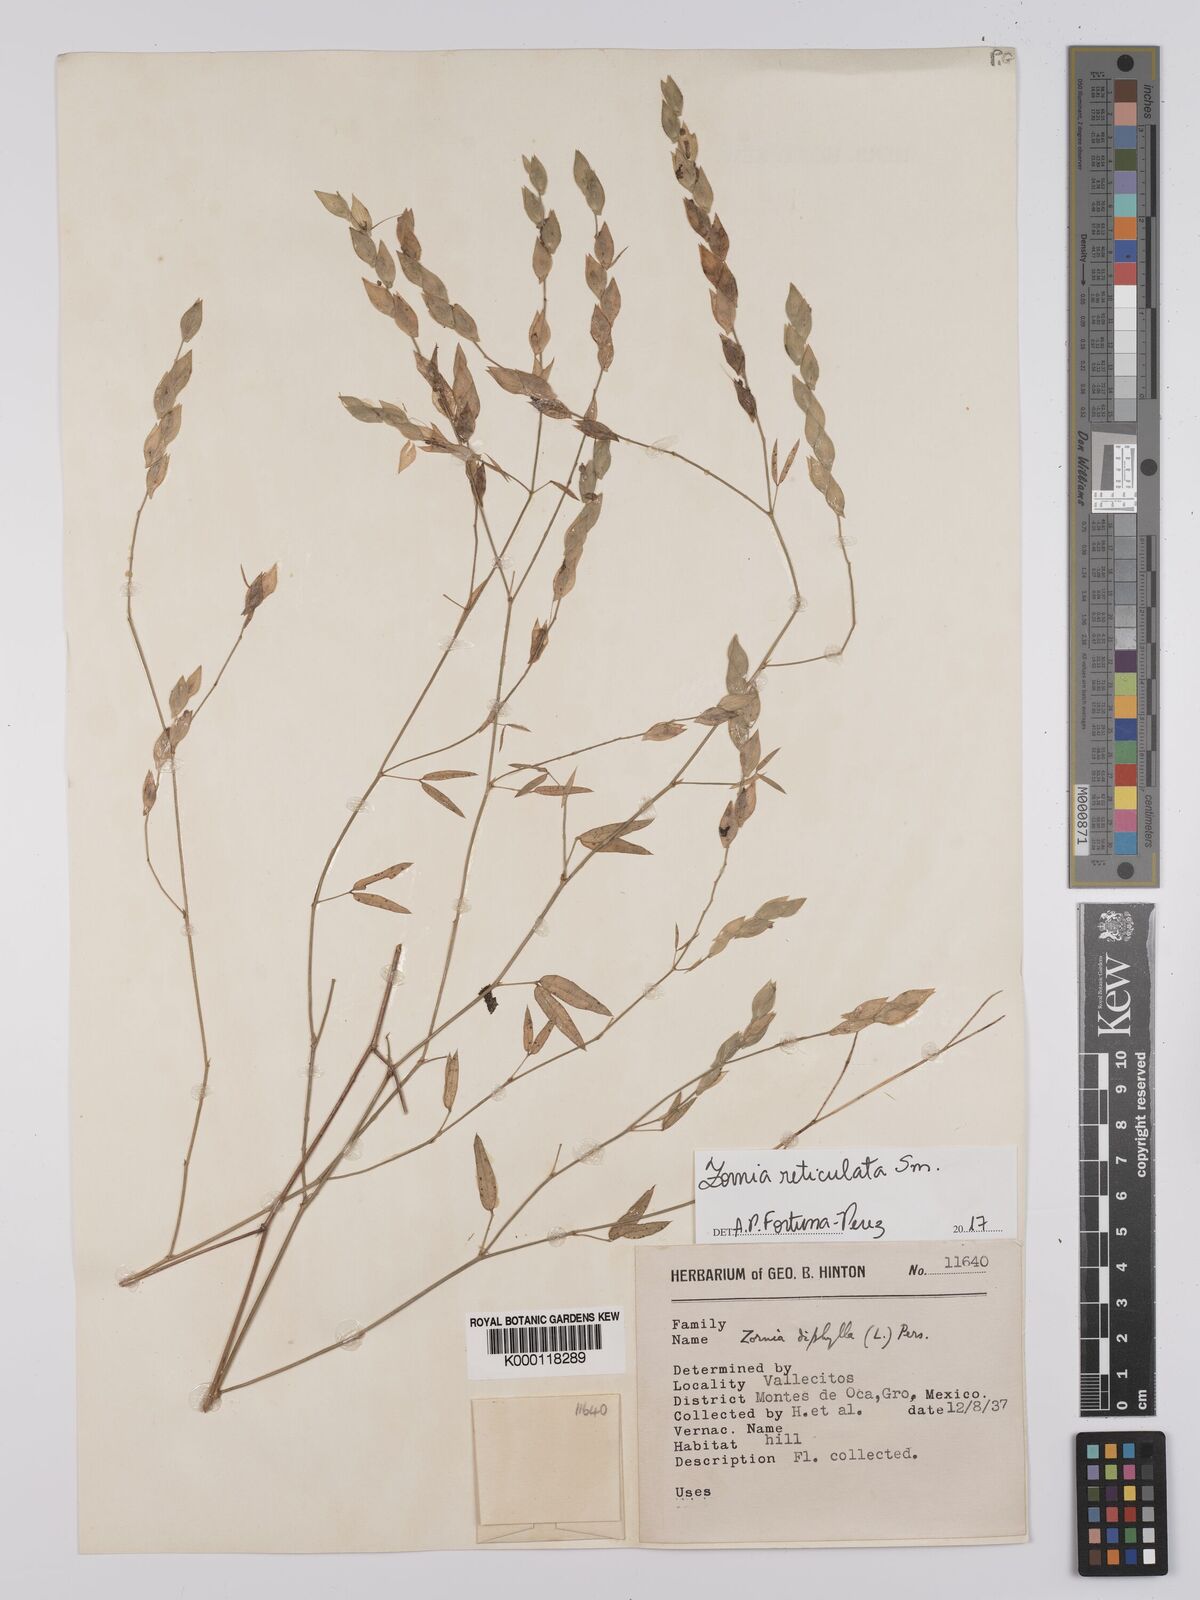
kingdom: Plantae
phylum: Tracheophyta
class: Magnoliopsida
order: Fabales
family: Fabaceae
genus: Zornia
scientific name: Zornia reticulata
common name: Reticulate viperina
